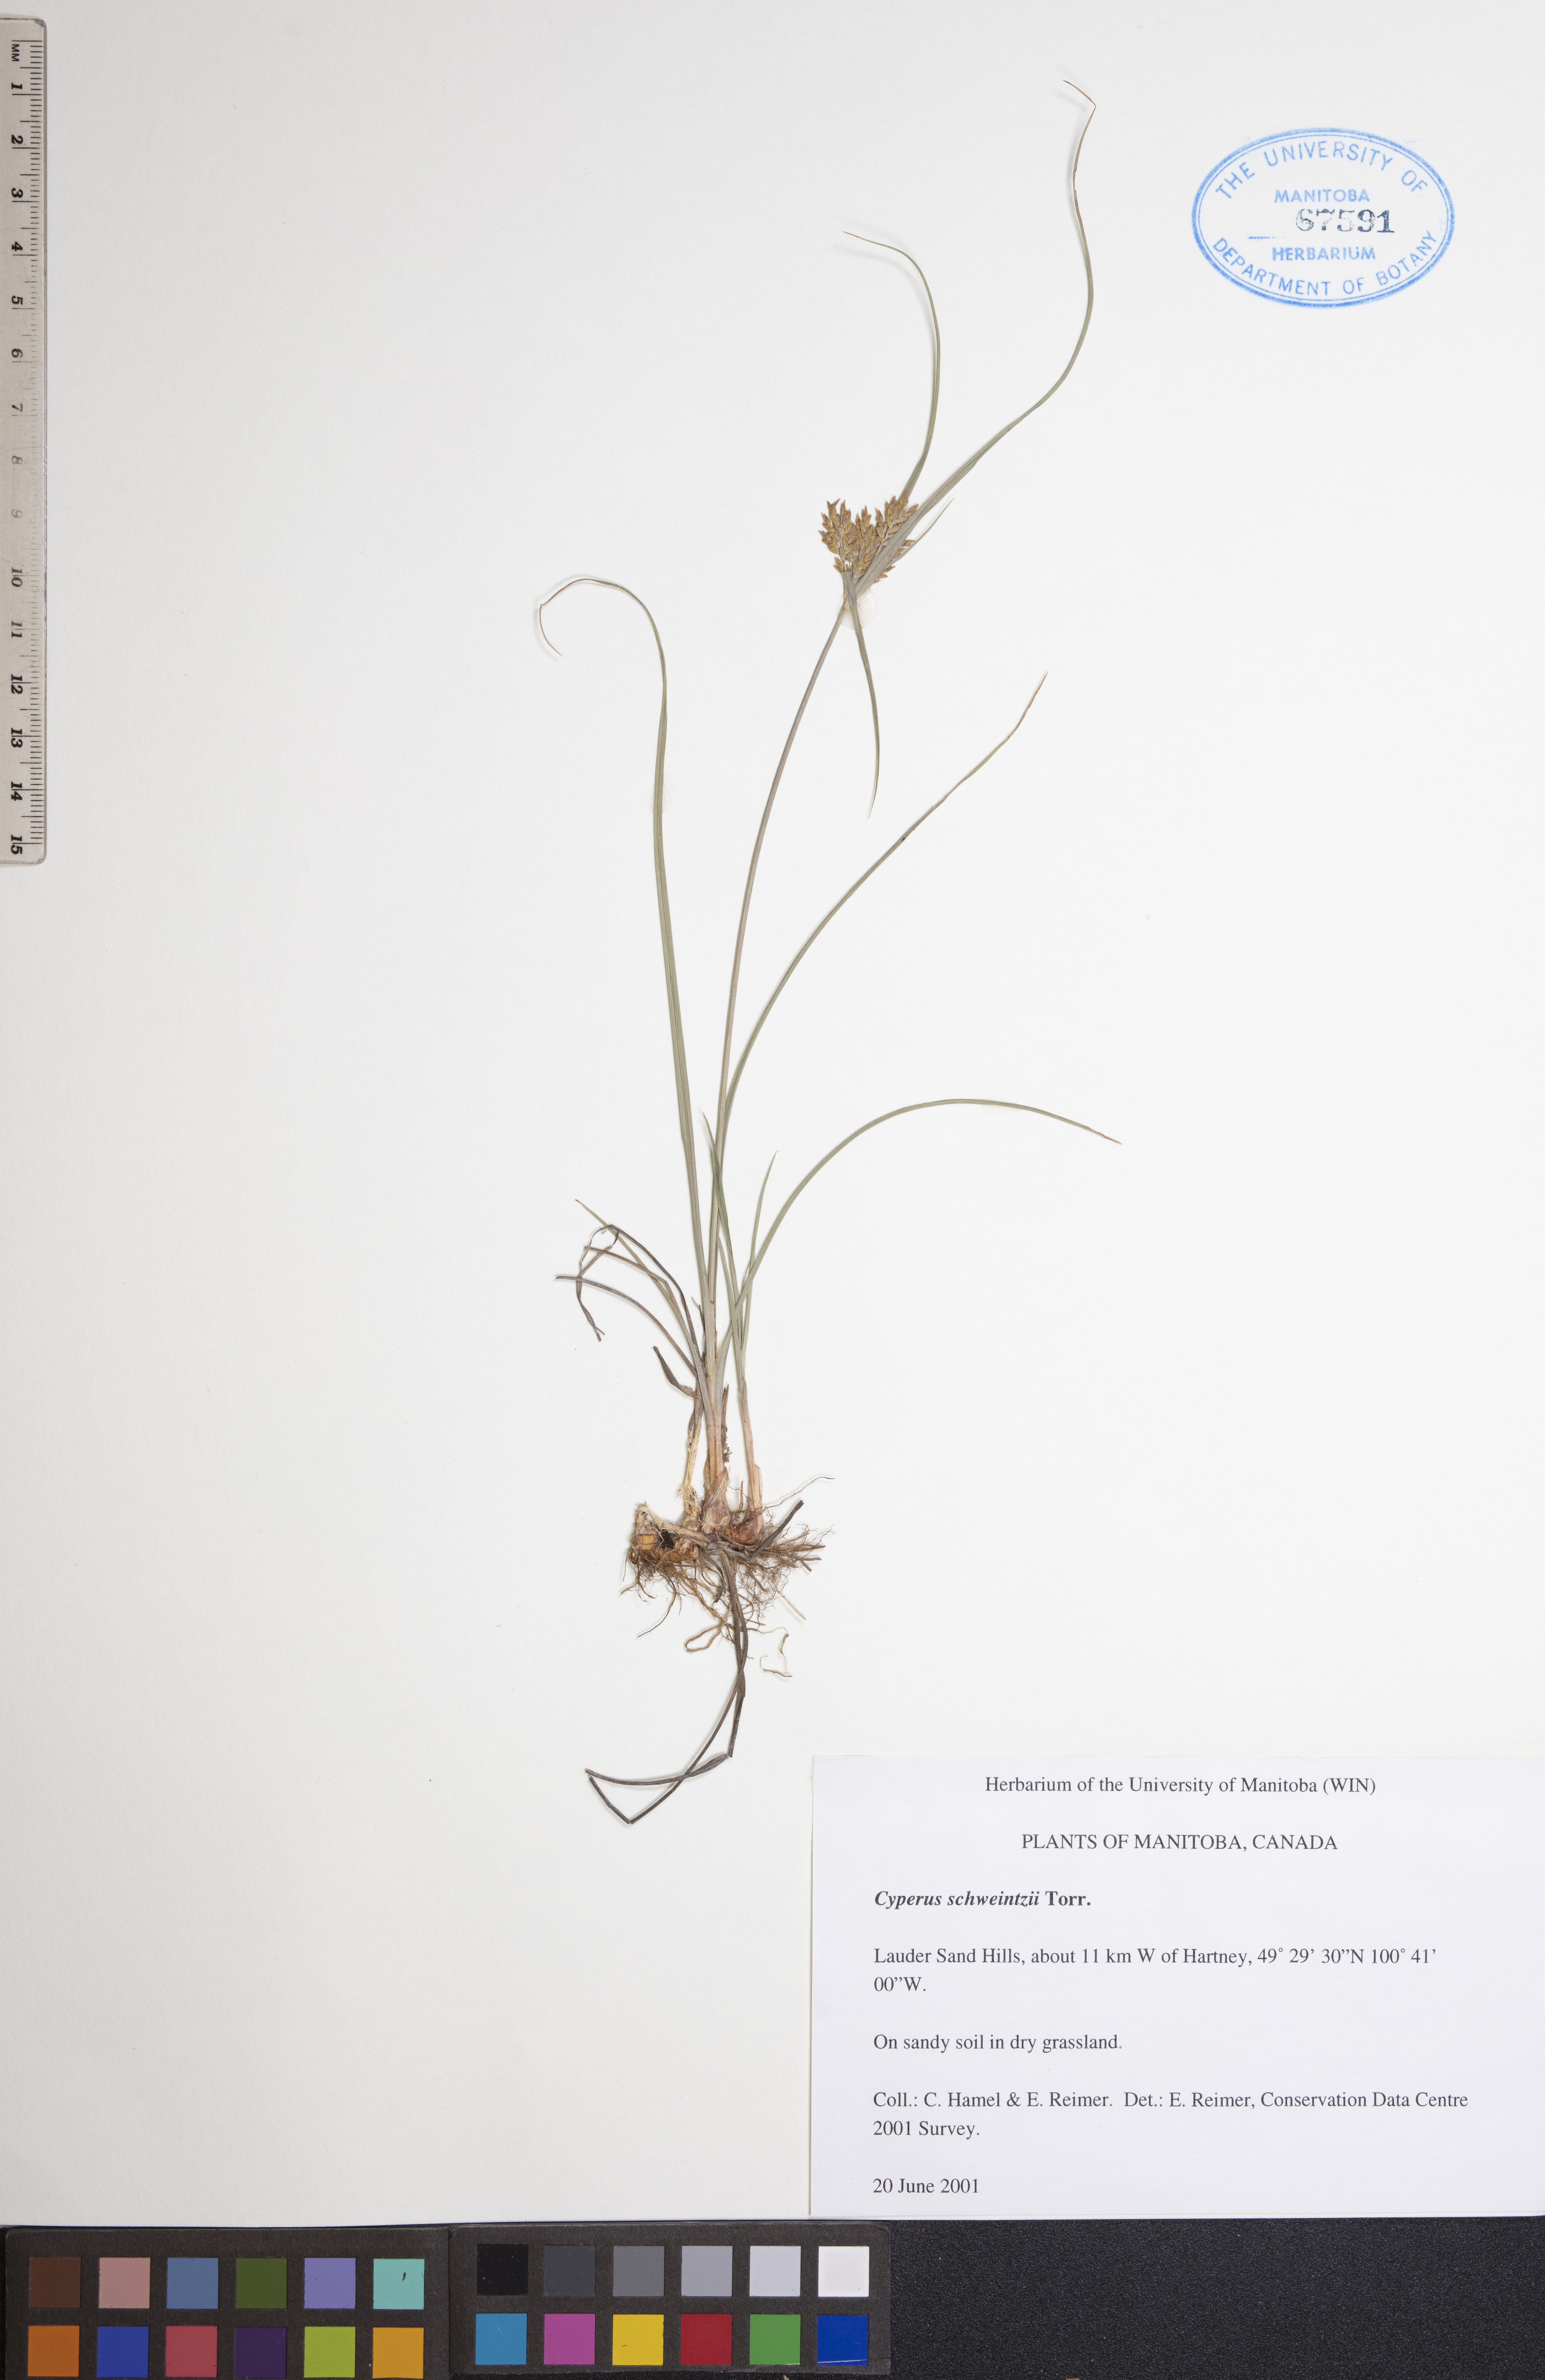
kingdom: Plantae
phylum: Tracheophyta
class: Liliopsida
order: Poales
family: Cyperaceae
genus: Cyperus
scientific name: Cyperus schweinitzii
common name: Schweinitz's cyperus
